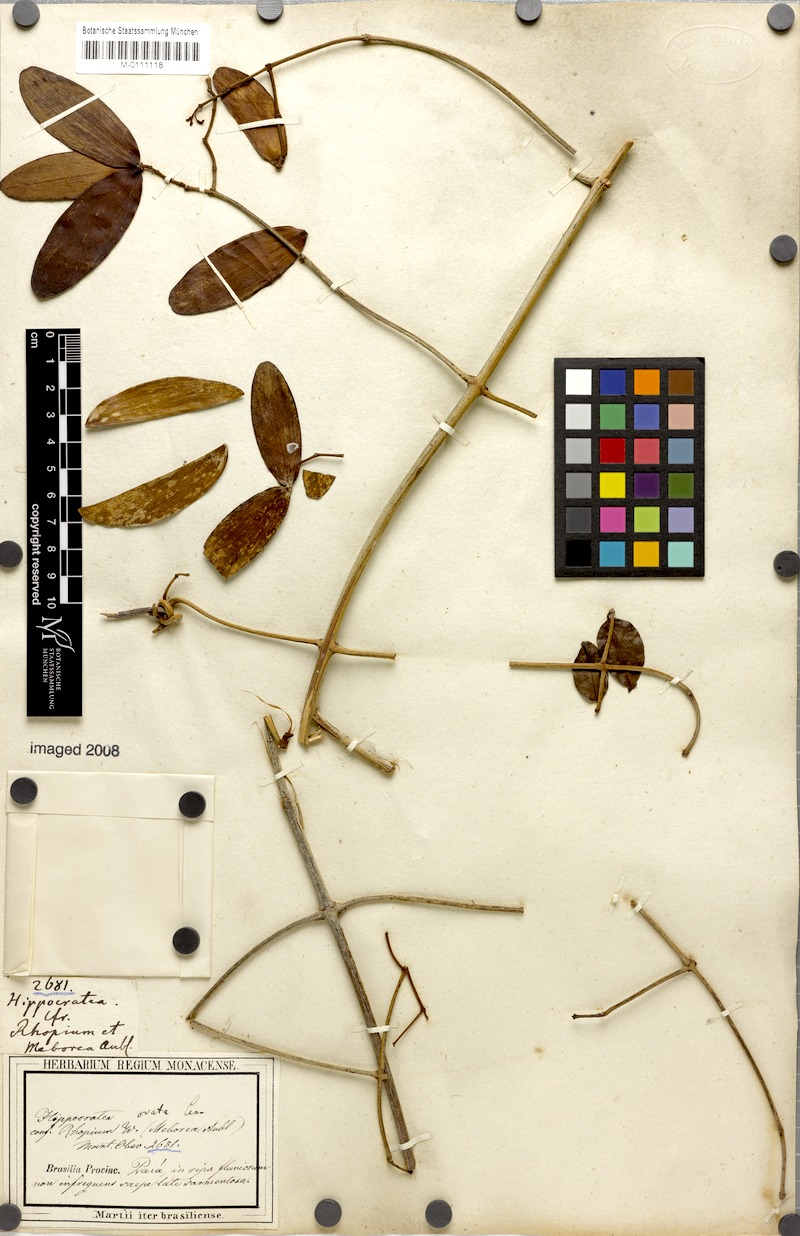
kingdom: Plantae
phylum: Tracheophyta
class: Magnoliopsida
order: Celastrales
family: Celastraceae
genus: Hippocratea
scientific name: Hippocratea volubilis
